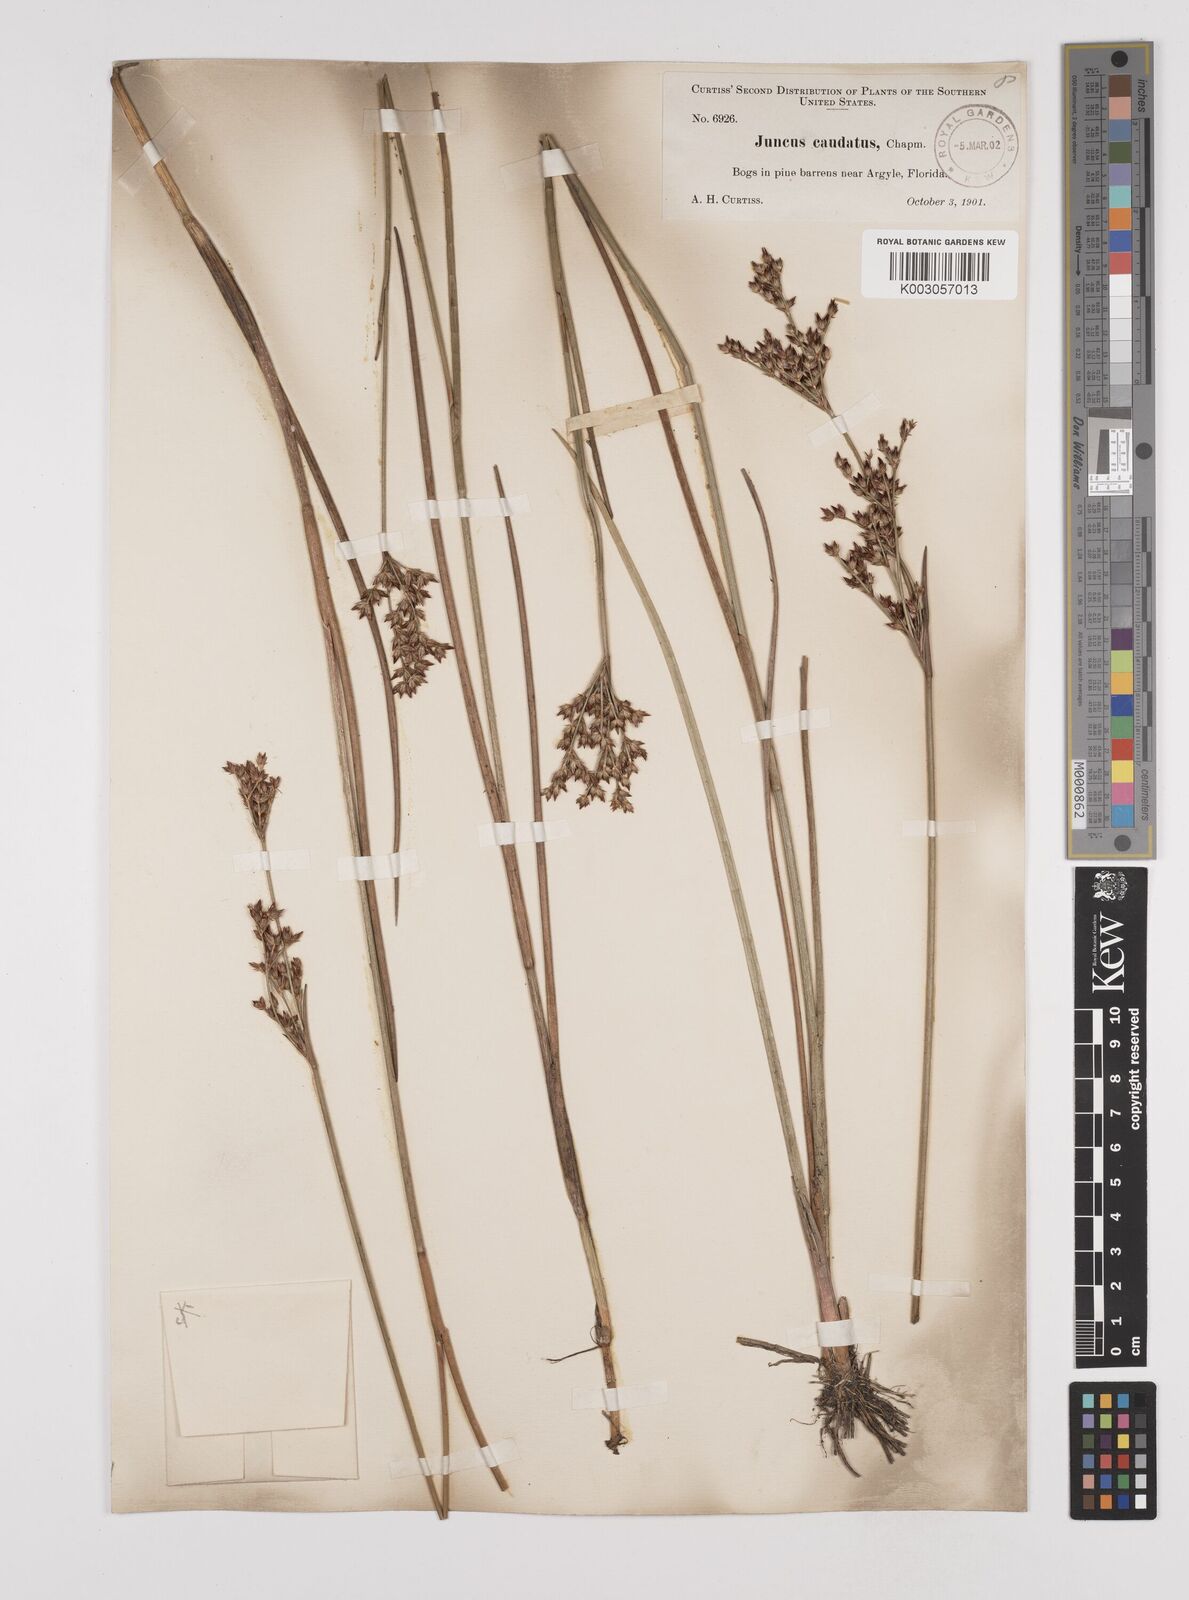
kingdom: Plantae
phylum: Tracheophyta
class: Liliopsida
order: Poales
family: Juncaceae
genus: Juncus
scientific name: Juncus trigonocarpus
